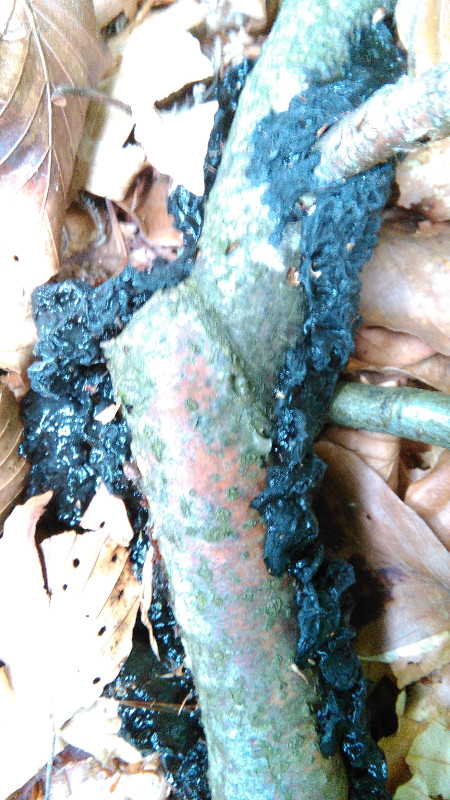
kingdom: Fungi
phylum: Basidiomycota
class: Agaricomycetes
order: Auriculariales
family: Auriculariaceae
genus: Exidia
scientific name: Exidia nigricans
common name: almindelig bævretop
